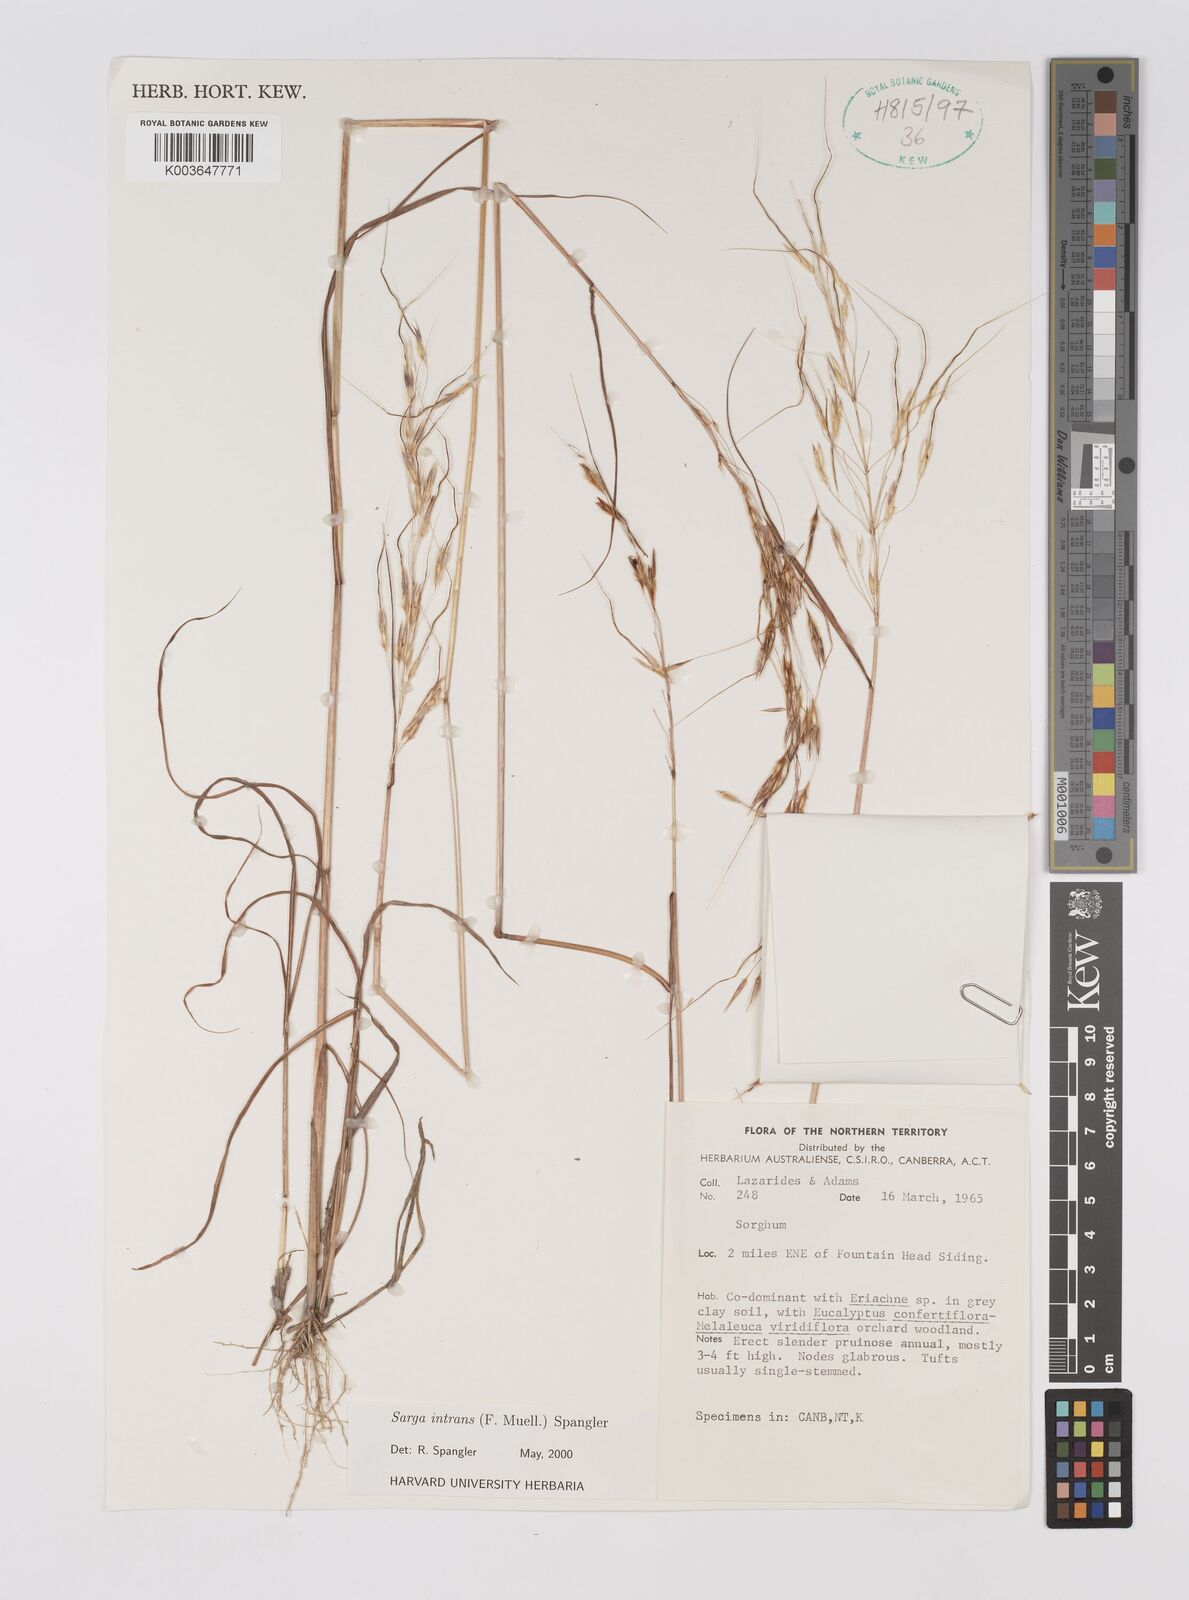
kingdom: Plantae
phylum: Tracheophyta
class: Liliopsida
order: Poales
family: Poaceae
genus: Sarga
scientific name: Sarga intrans
